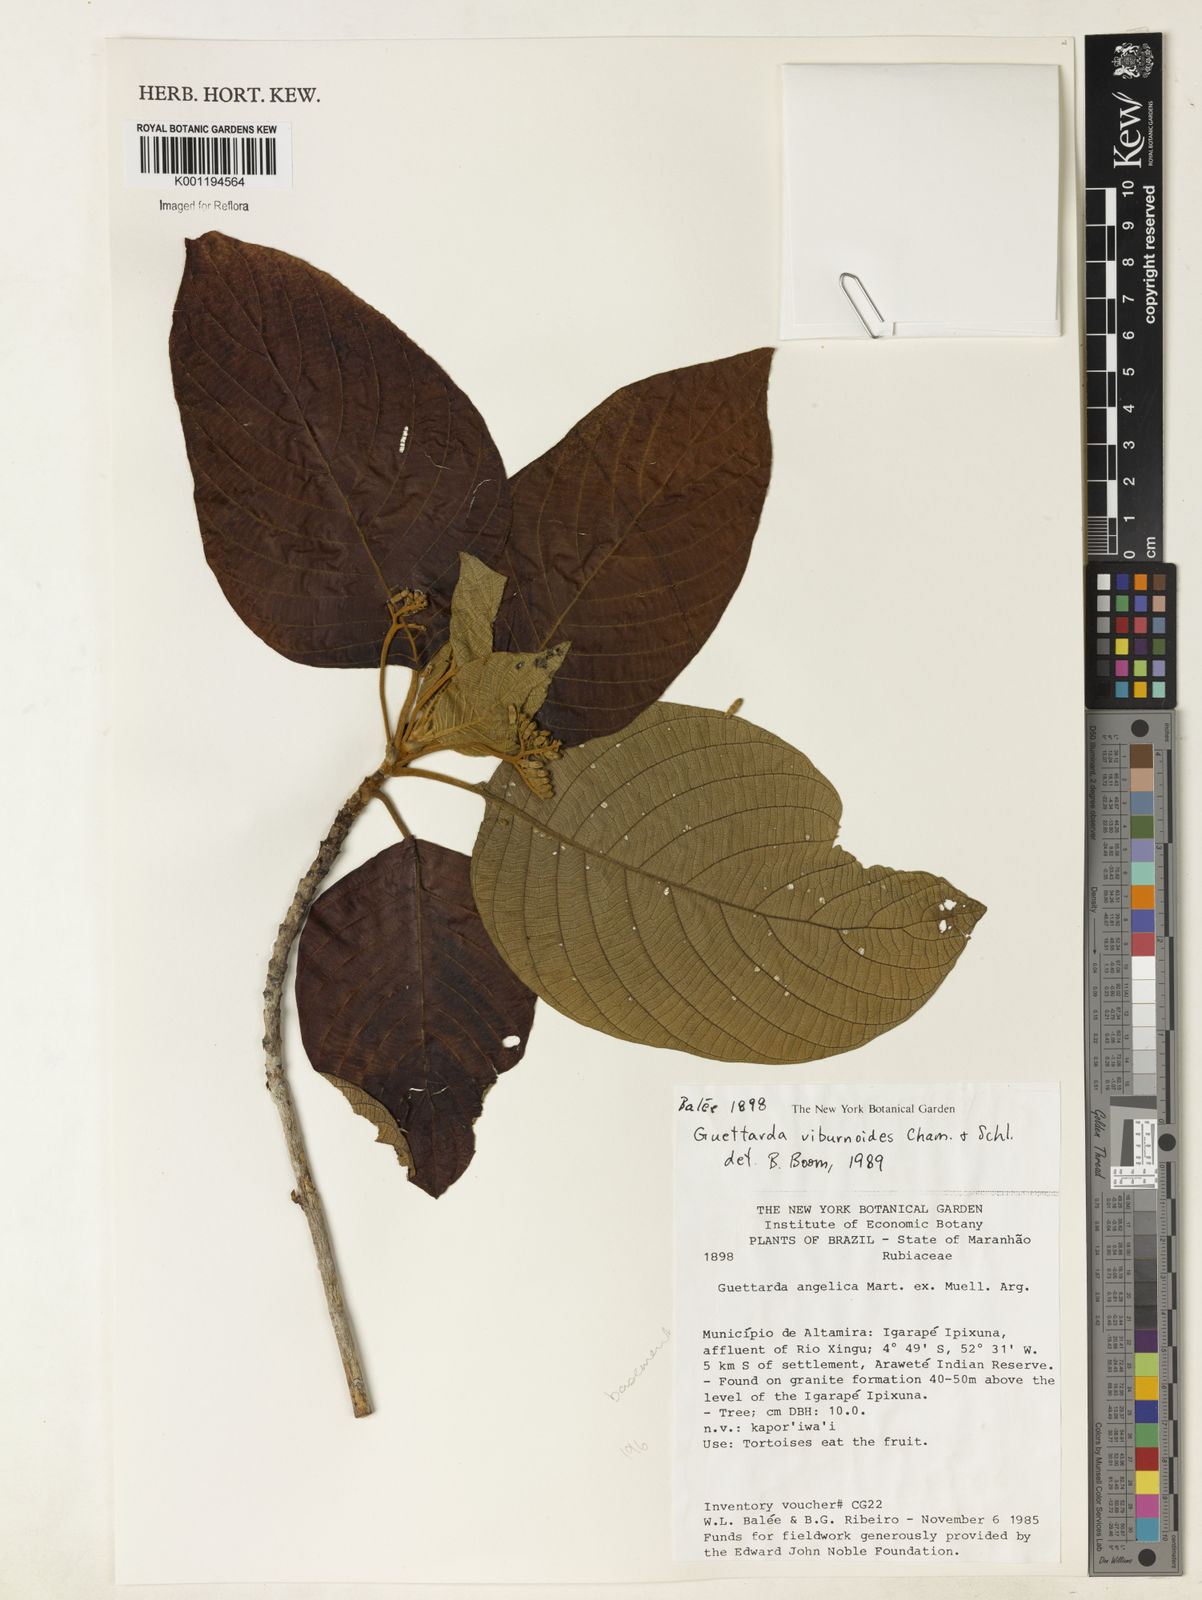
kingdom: Plantae
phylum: Tracheophyta
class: Magnoliopsida
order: Gentianales
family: Rubiaceae
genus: Guettarda
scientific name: Guettarda viburnoides
